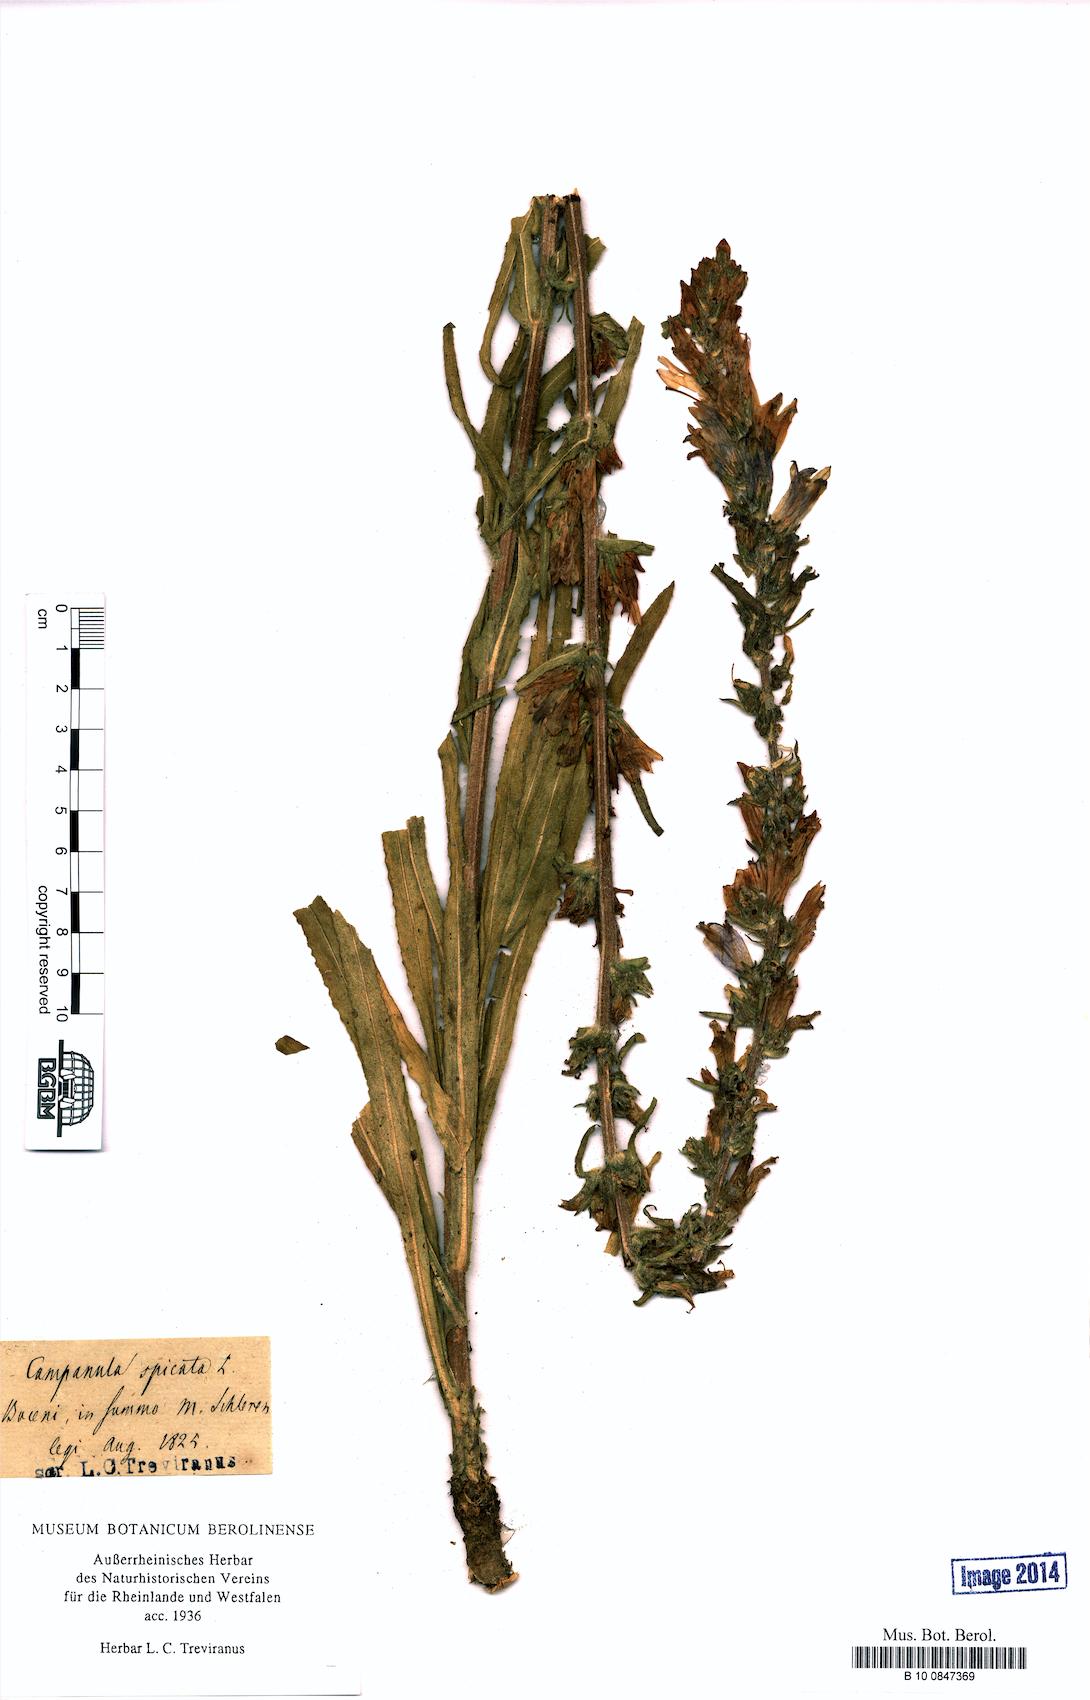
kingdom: Plantae
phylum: Tracheophyta
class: Magnoliopsida
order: Asterales
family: Campanulaceae
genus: Campanula
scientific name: Campanula spicata
